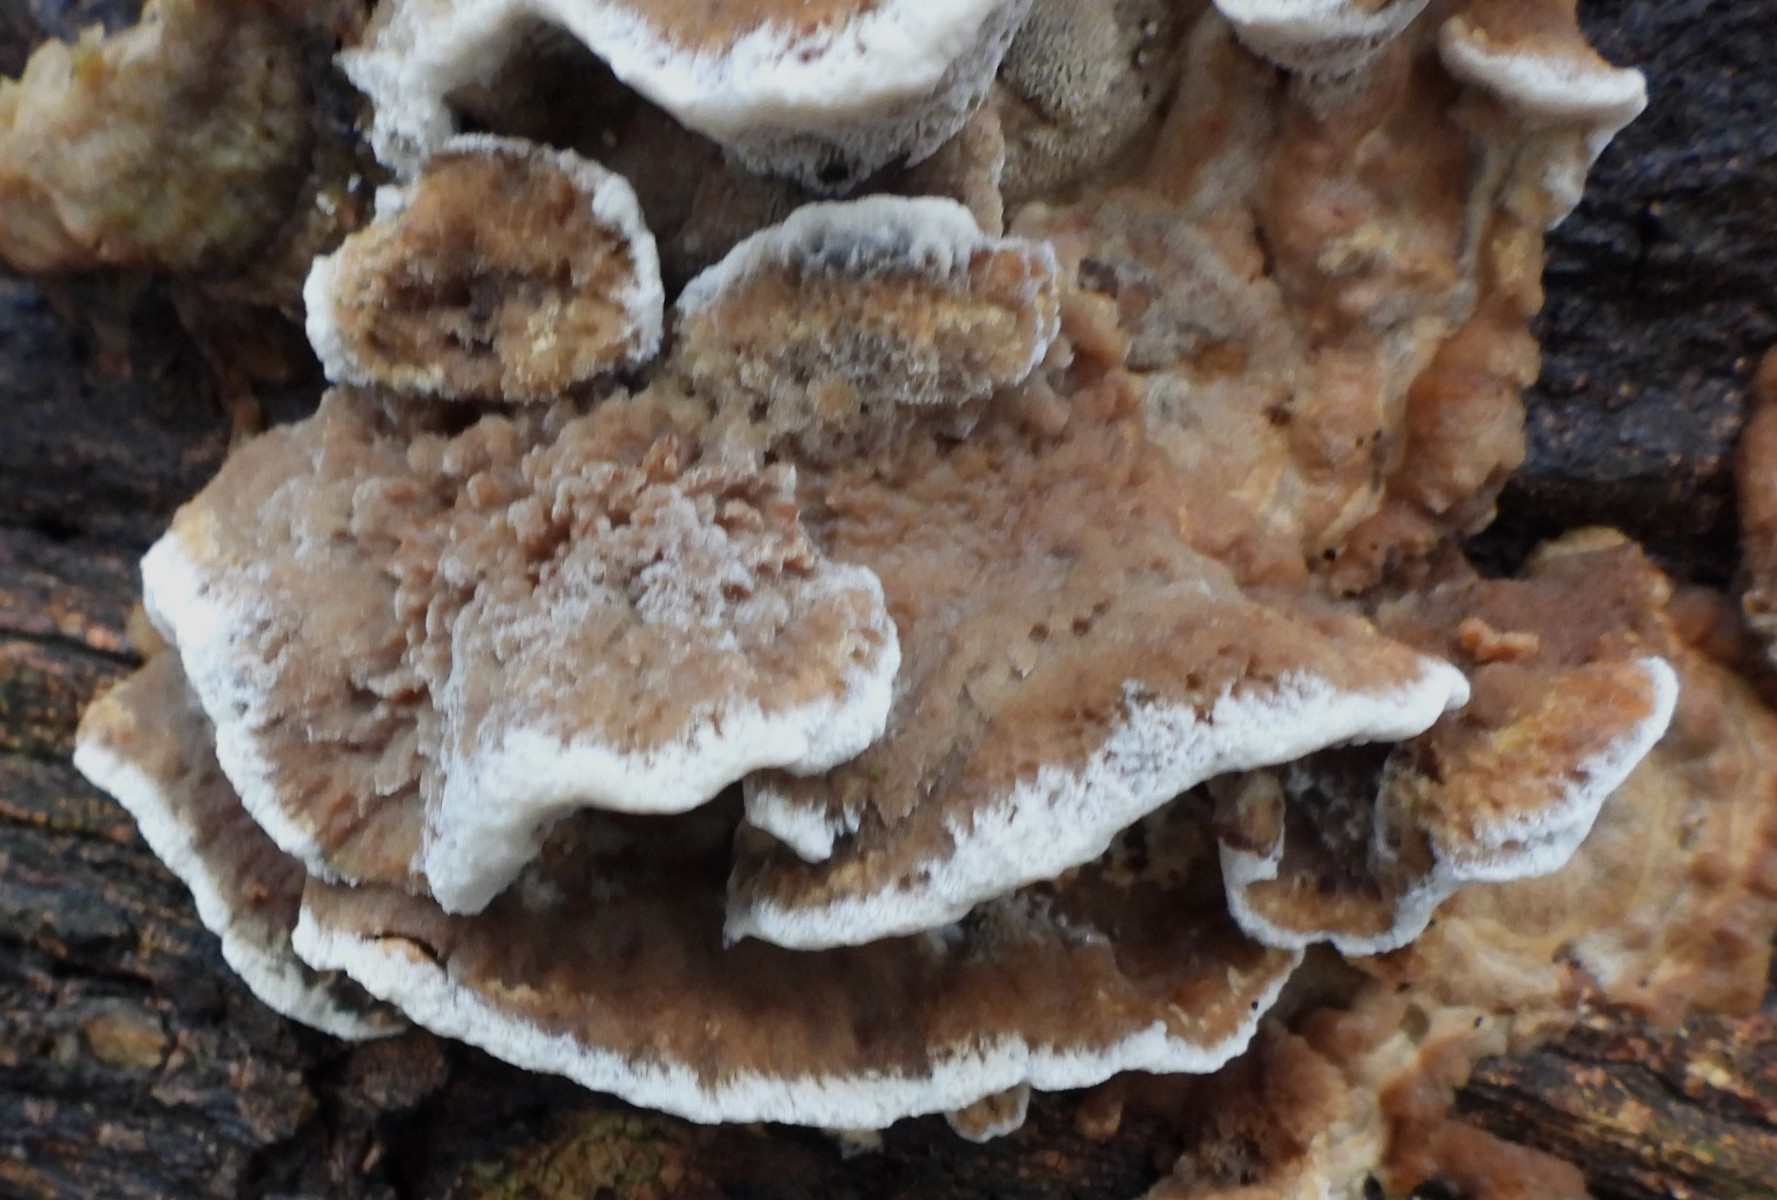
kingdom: Fungi
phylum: Basidiomycota
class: Agaricomycetes
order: Polyporales
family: Phanerochaetaceae
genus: Bjerkandera
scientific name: Bjerkandera fumosa
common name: grågul sodporesvamp
